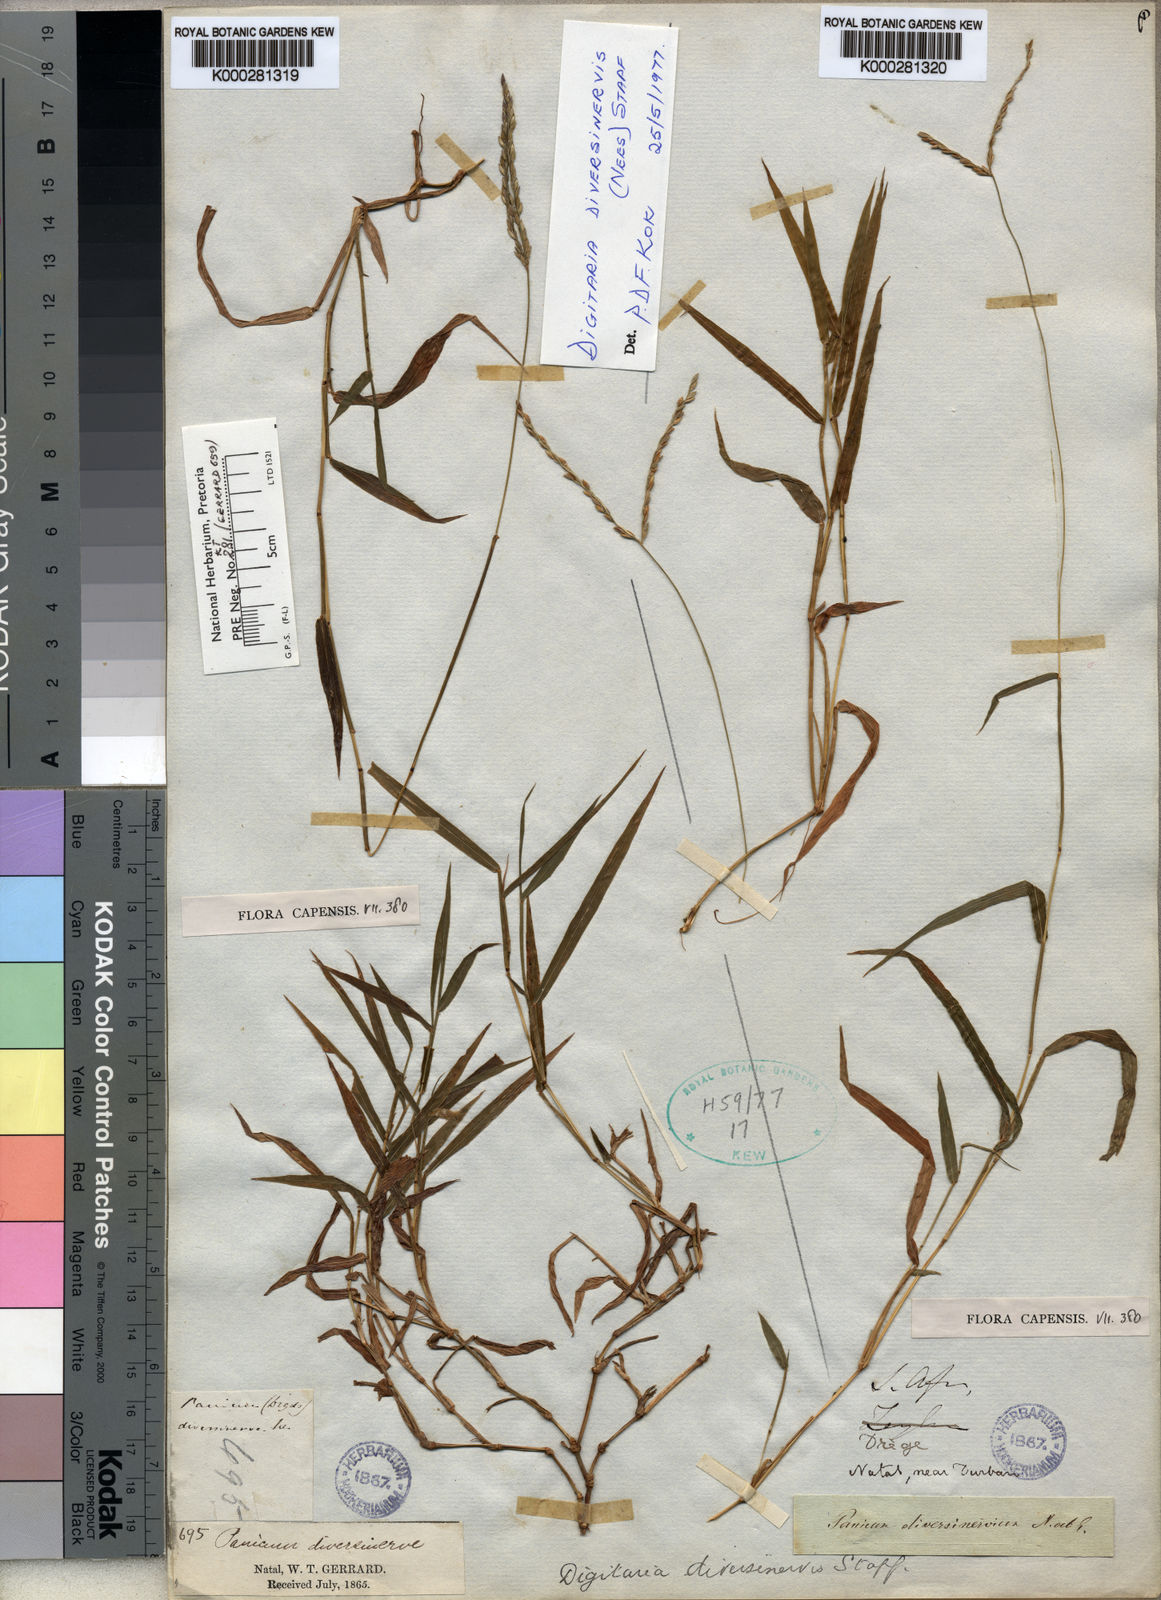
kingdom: Plantae
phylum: Tracheophyta
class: Liliopsida
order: Poales
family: Poaceae
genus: Digitaria
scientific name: Digitaria diversinervis
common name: Richmond finger grass
